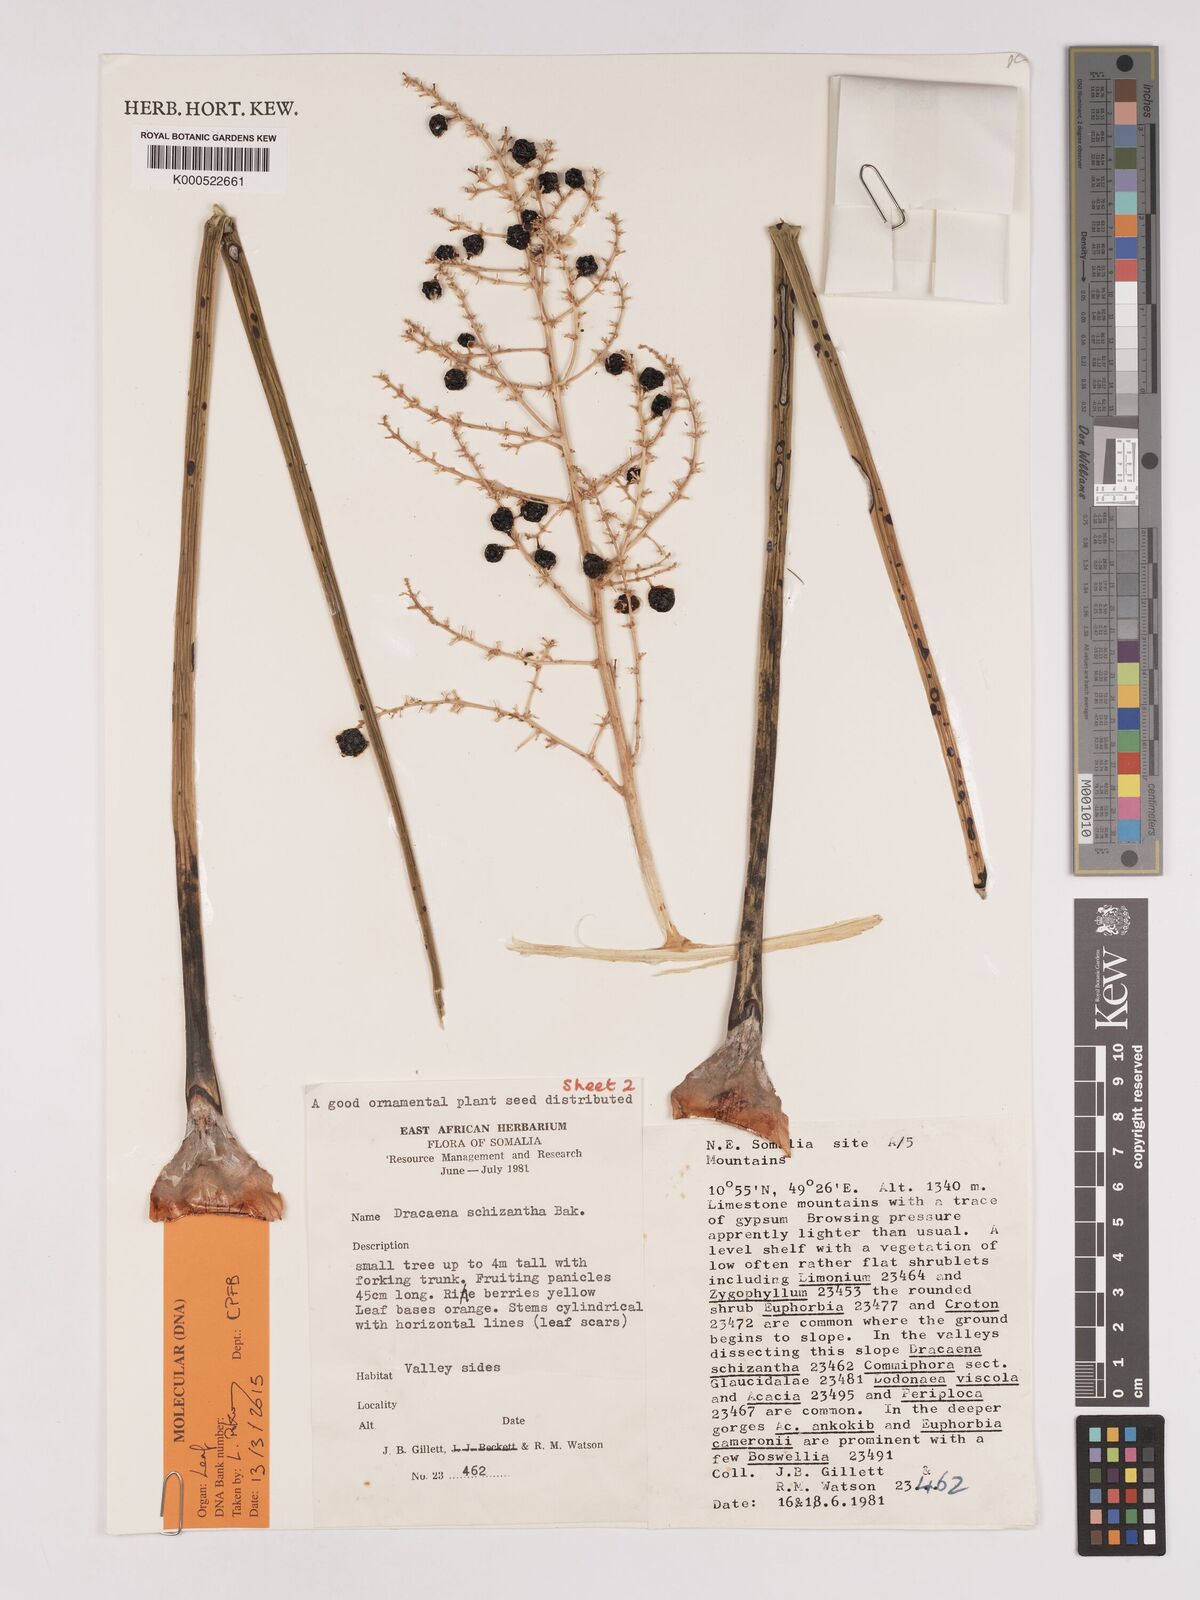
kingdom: Plantae
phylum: Tracheophyta
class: Liliopsida
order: Asparagales
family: Asparagaceae
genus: Dracaena
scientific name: Dracaena ombet
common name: Gabal elba dragon tree
